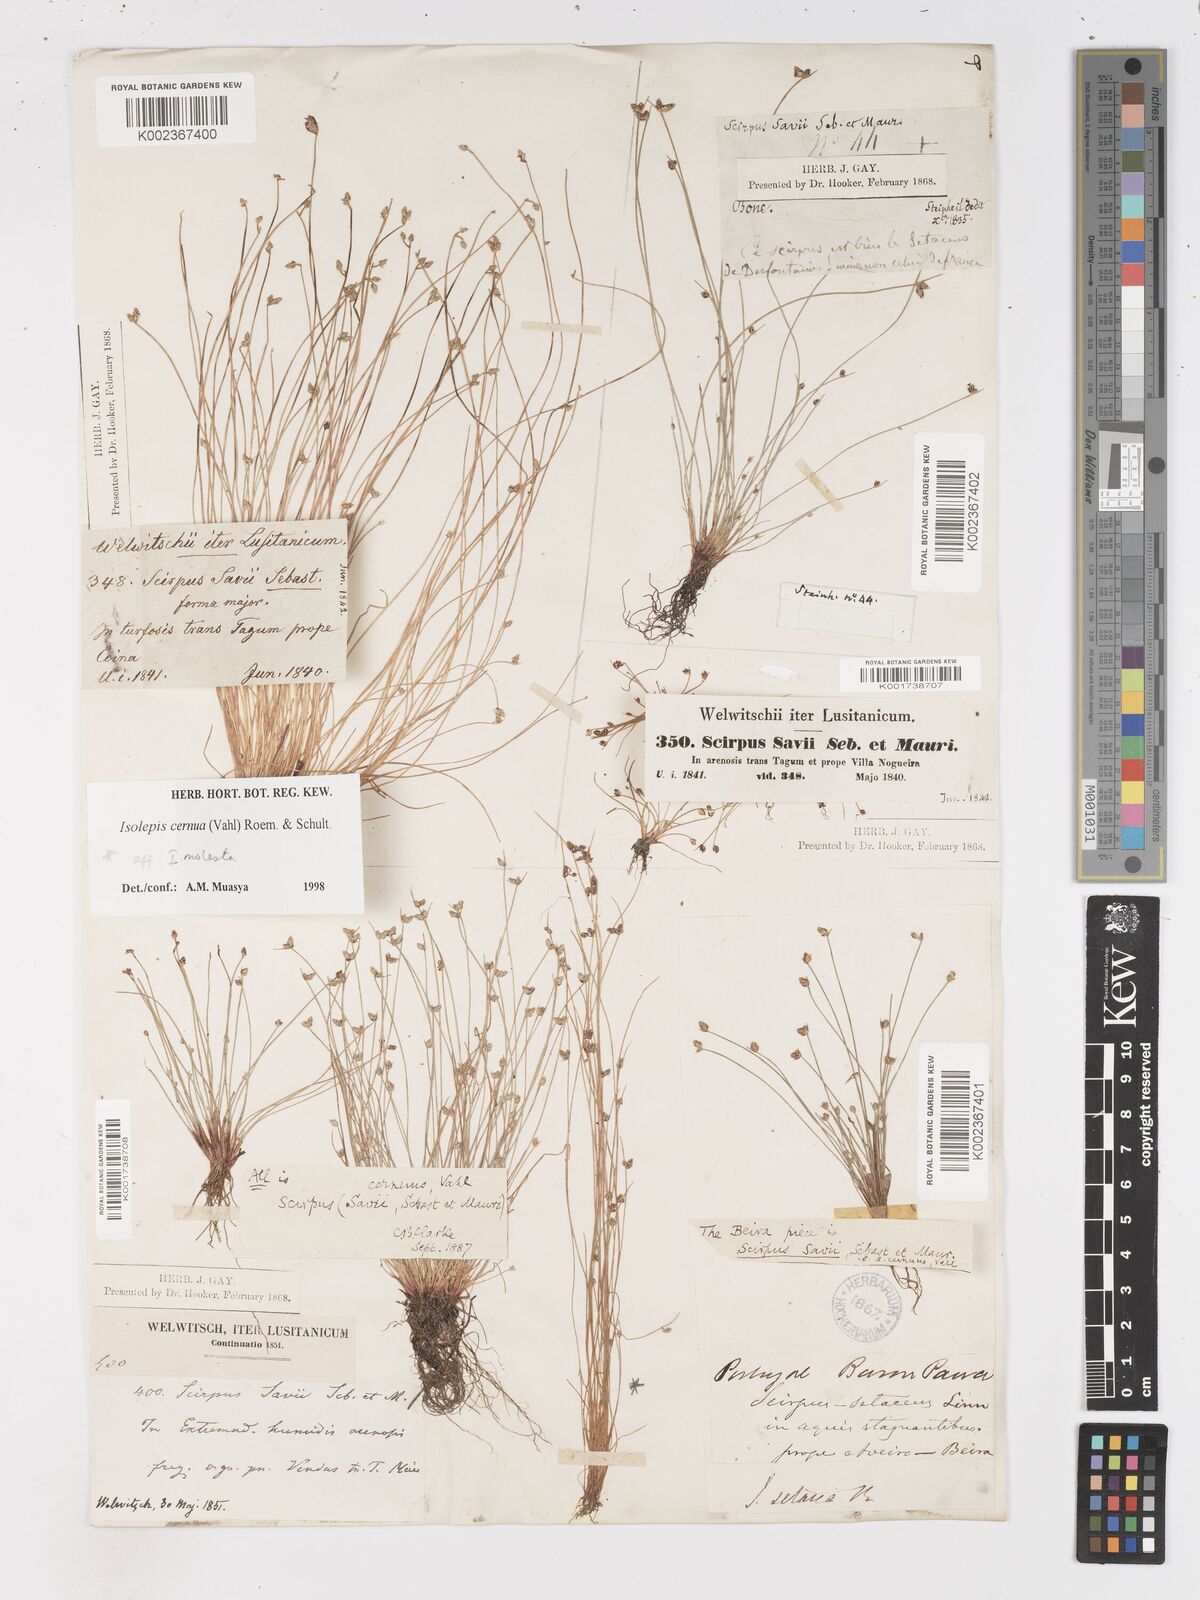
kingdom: Plantae
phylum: Tracheophyta
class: Liliopsida
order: Poales
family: Cyperaceae
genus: Isolepis
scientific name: Isolepis cernua
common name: Slender club-rush
